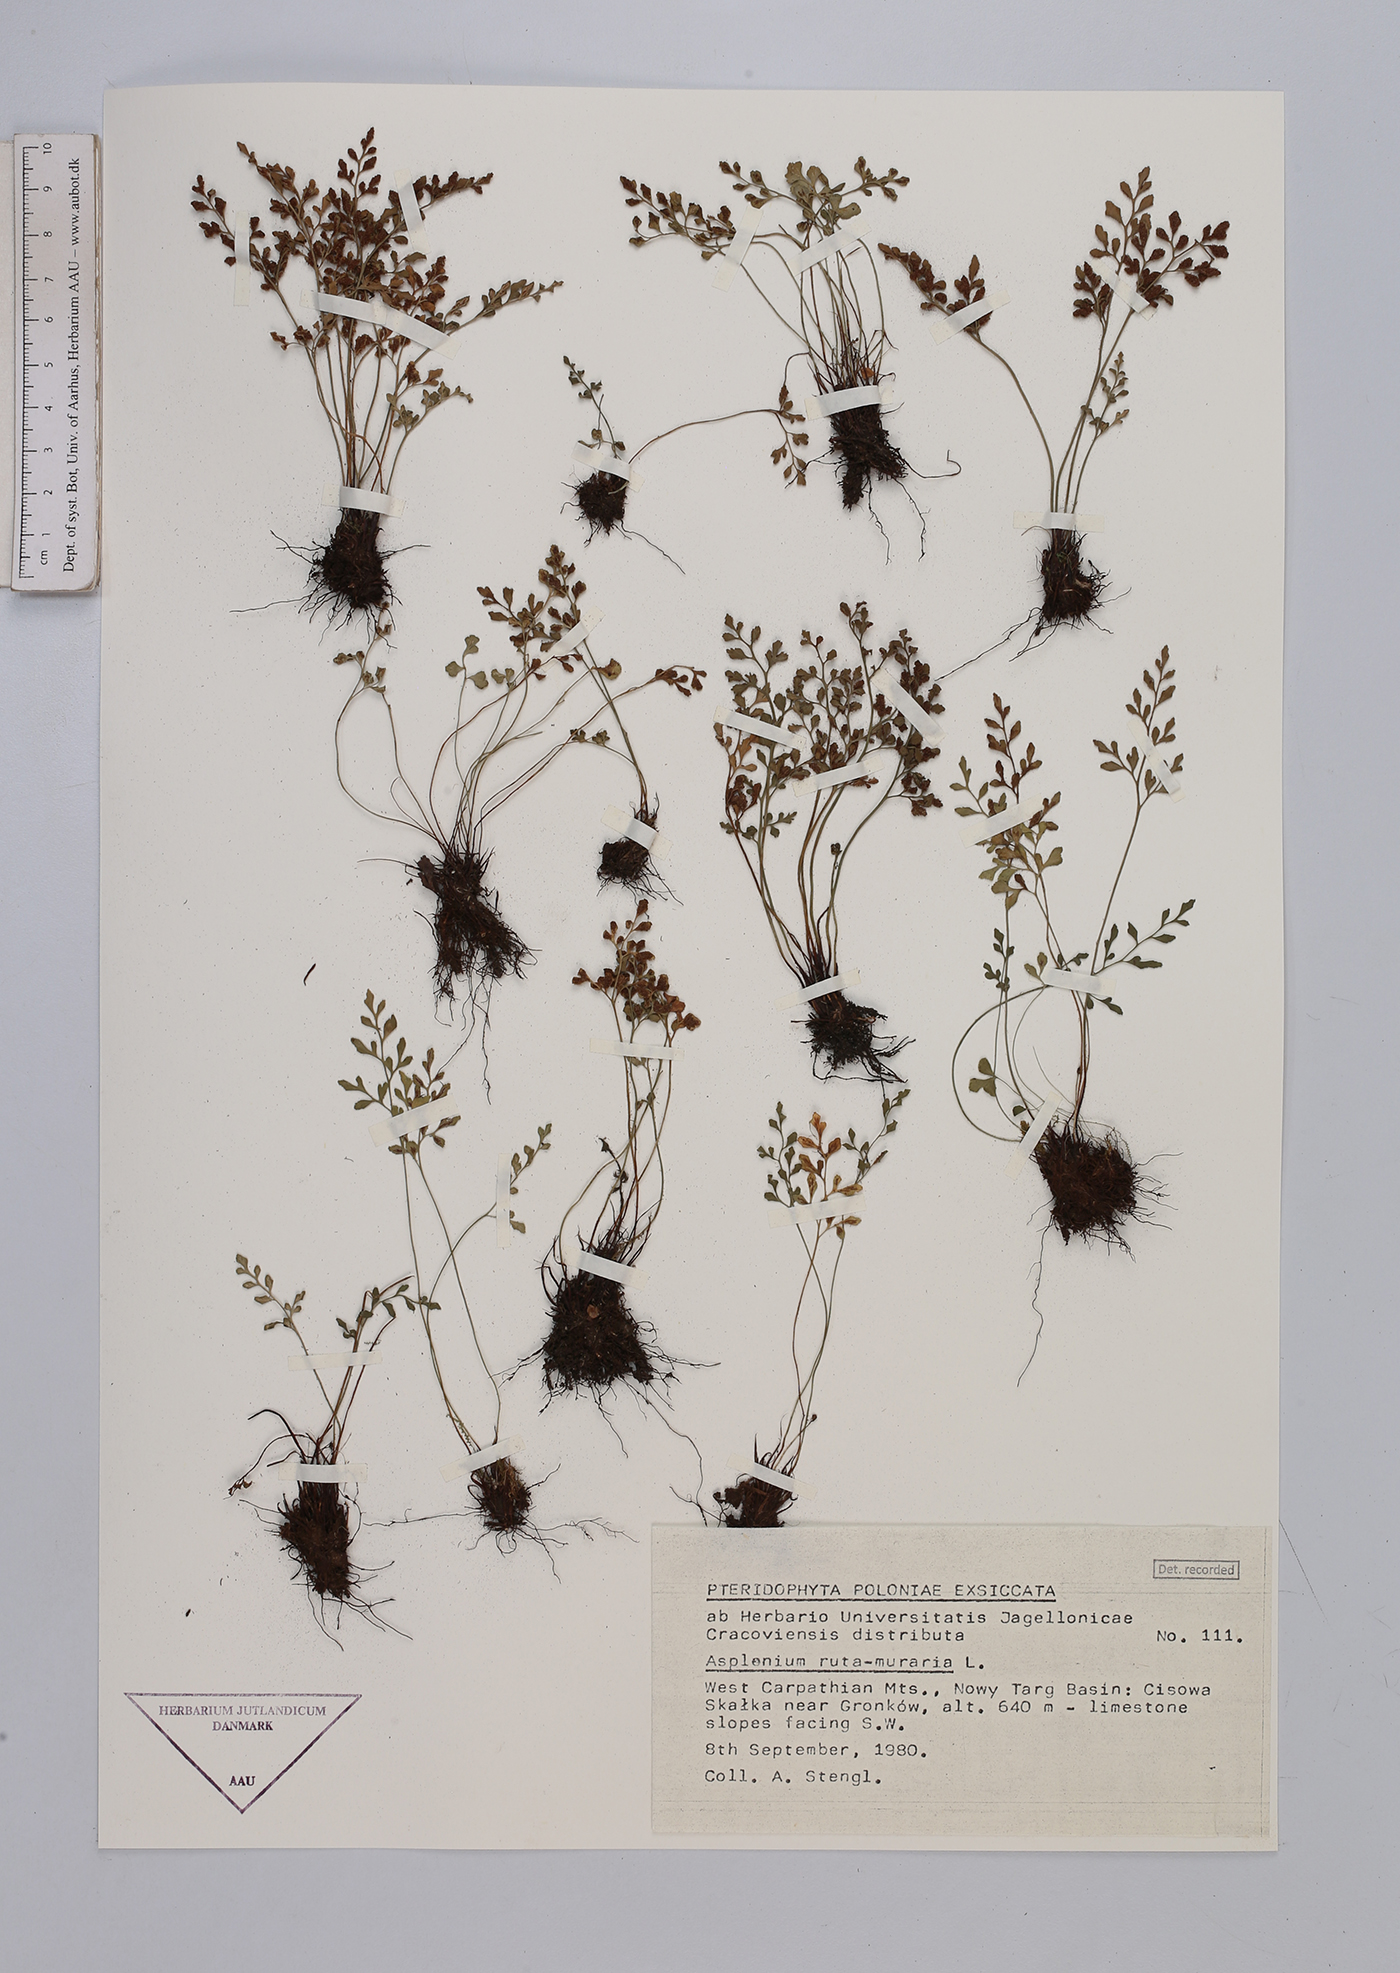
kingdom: Plantae
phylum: Tracheophyta
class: Polypodiopsida
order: Polypodiales
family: Aspleniaceae
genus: Asplenium
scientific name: Asplenium ruta-muraria
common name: Wall-rue
